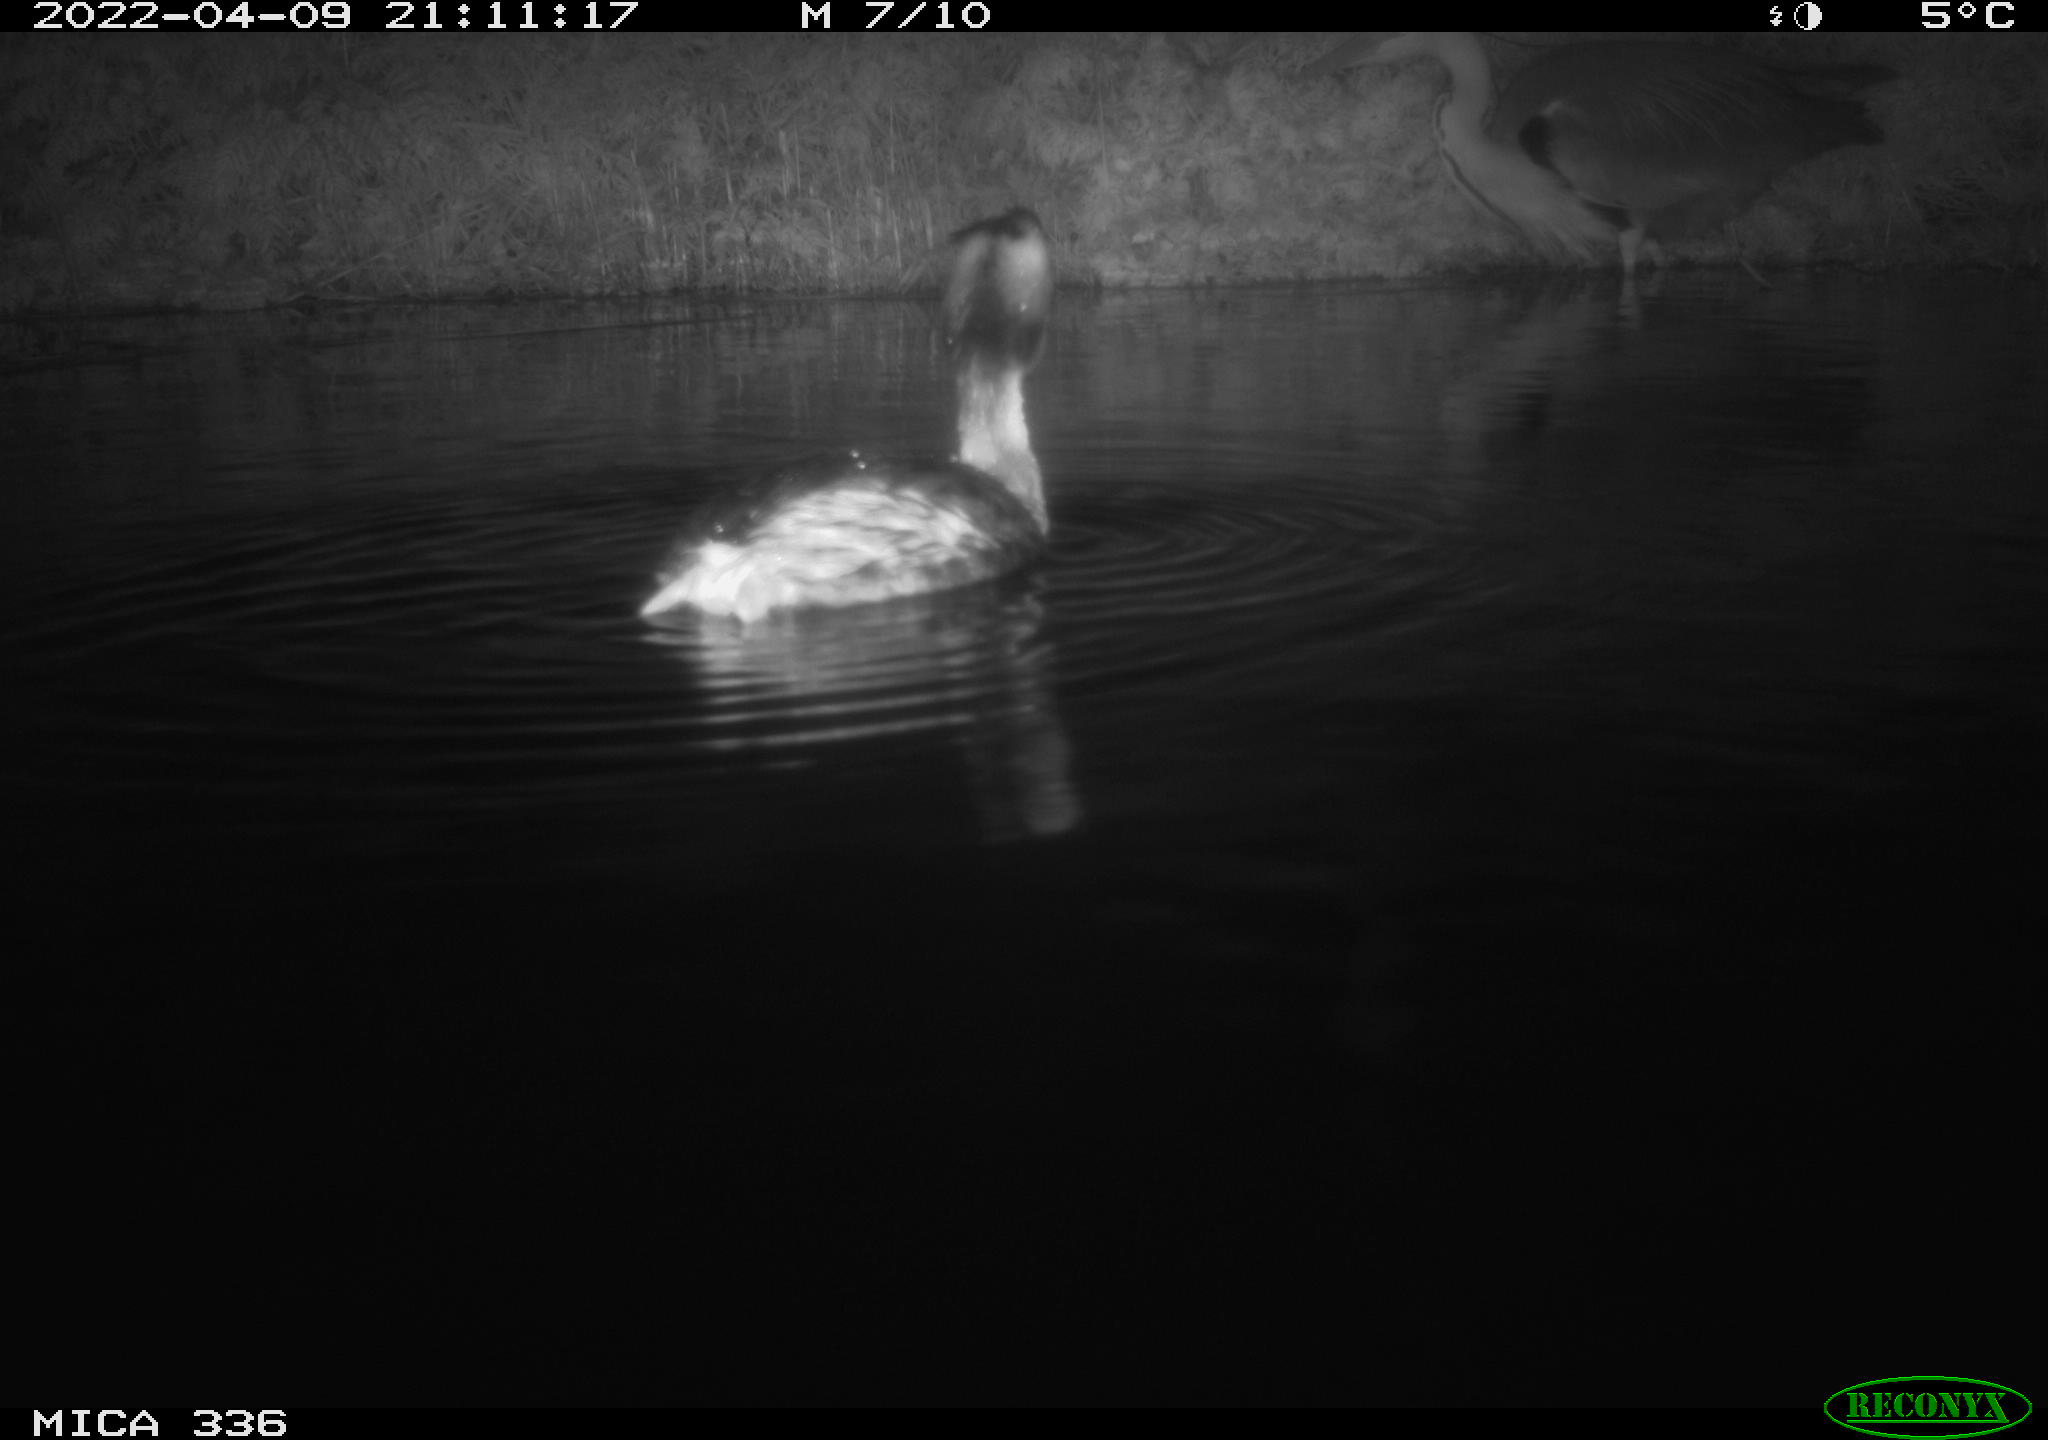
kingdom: Animalia
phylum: Chordata
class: Aves
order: Pelecaniformes
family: Ardeidae
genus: Ardea
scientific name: Ardea cinerea
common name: Grey heron
